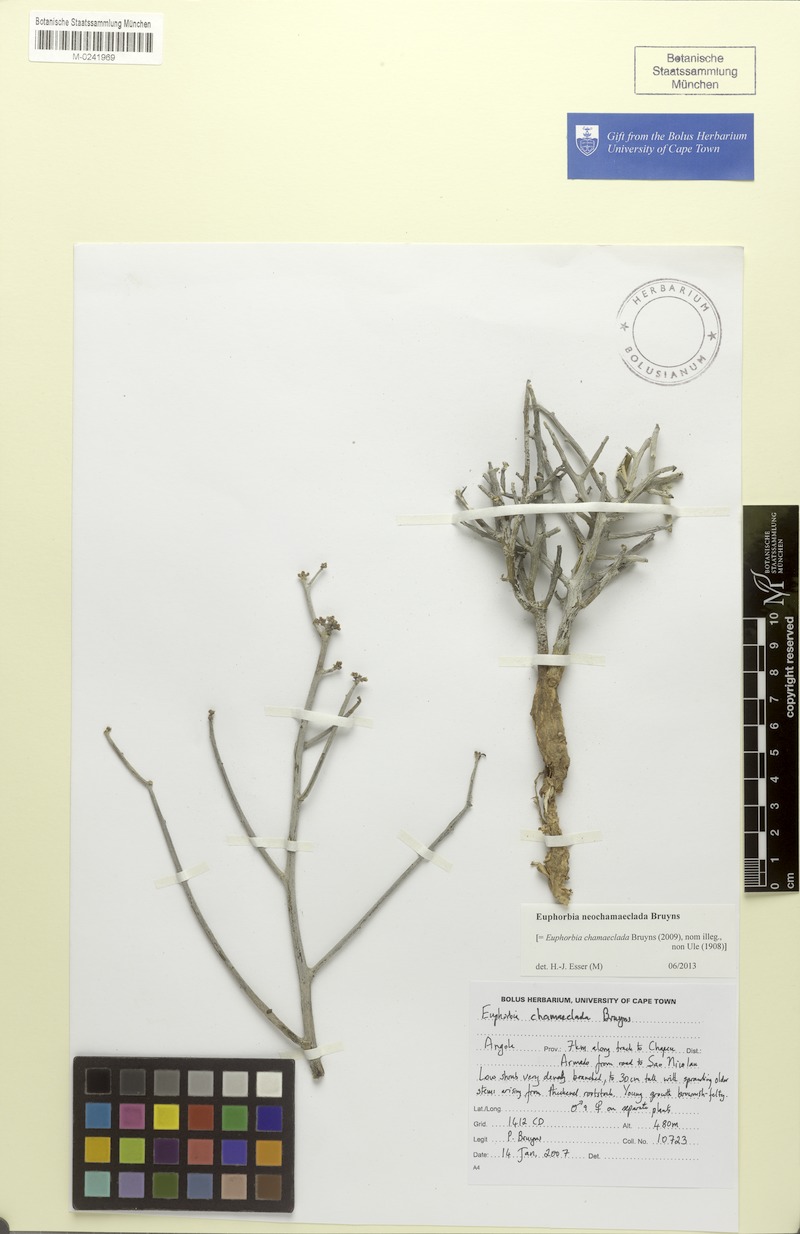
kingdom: Plantae
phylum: Tracheophyta
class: Magnoliopsida
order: Malpighiales
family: Euphorbiaceae
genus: Euphorbia
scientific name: Euphorbia neochamaeclada
